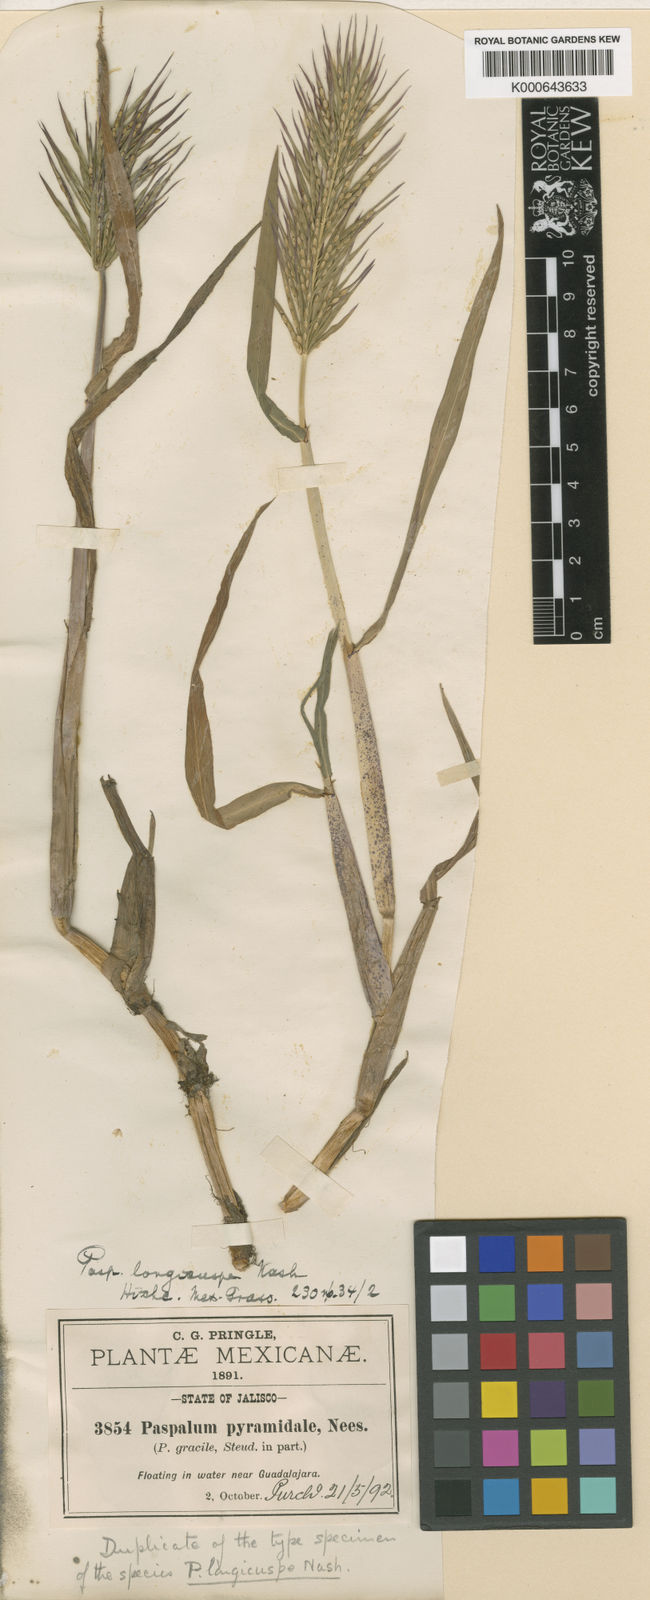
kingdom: Plantae
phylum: Tracheophyta
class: Liliopsida
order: Poales
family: Poaceae
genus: Paspalum
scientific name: Paspalum longicuspe
